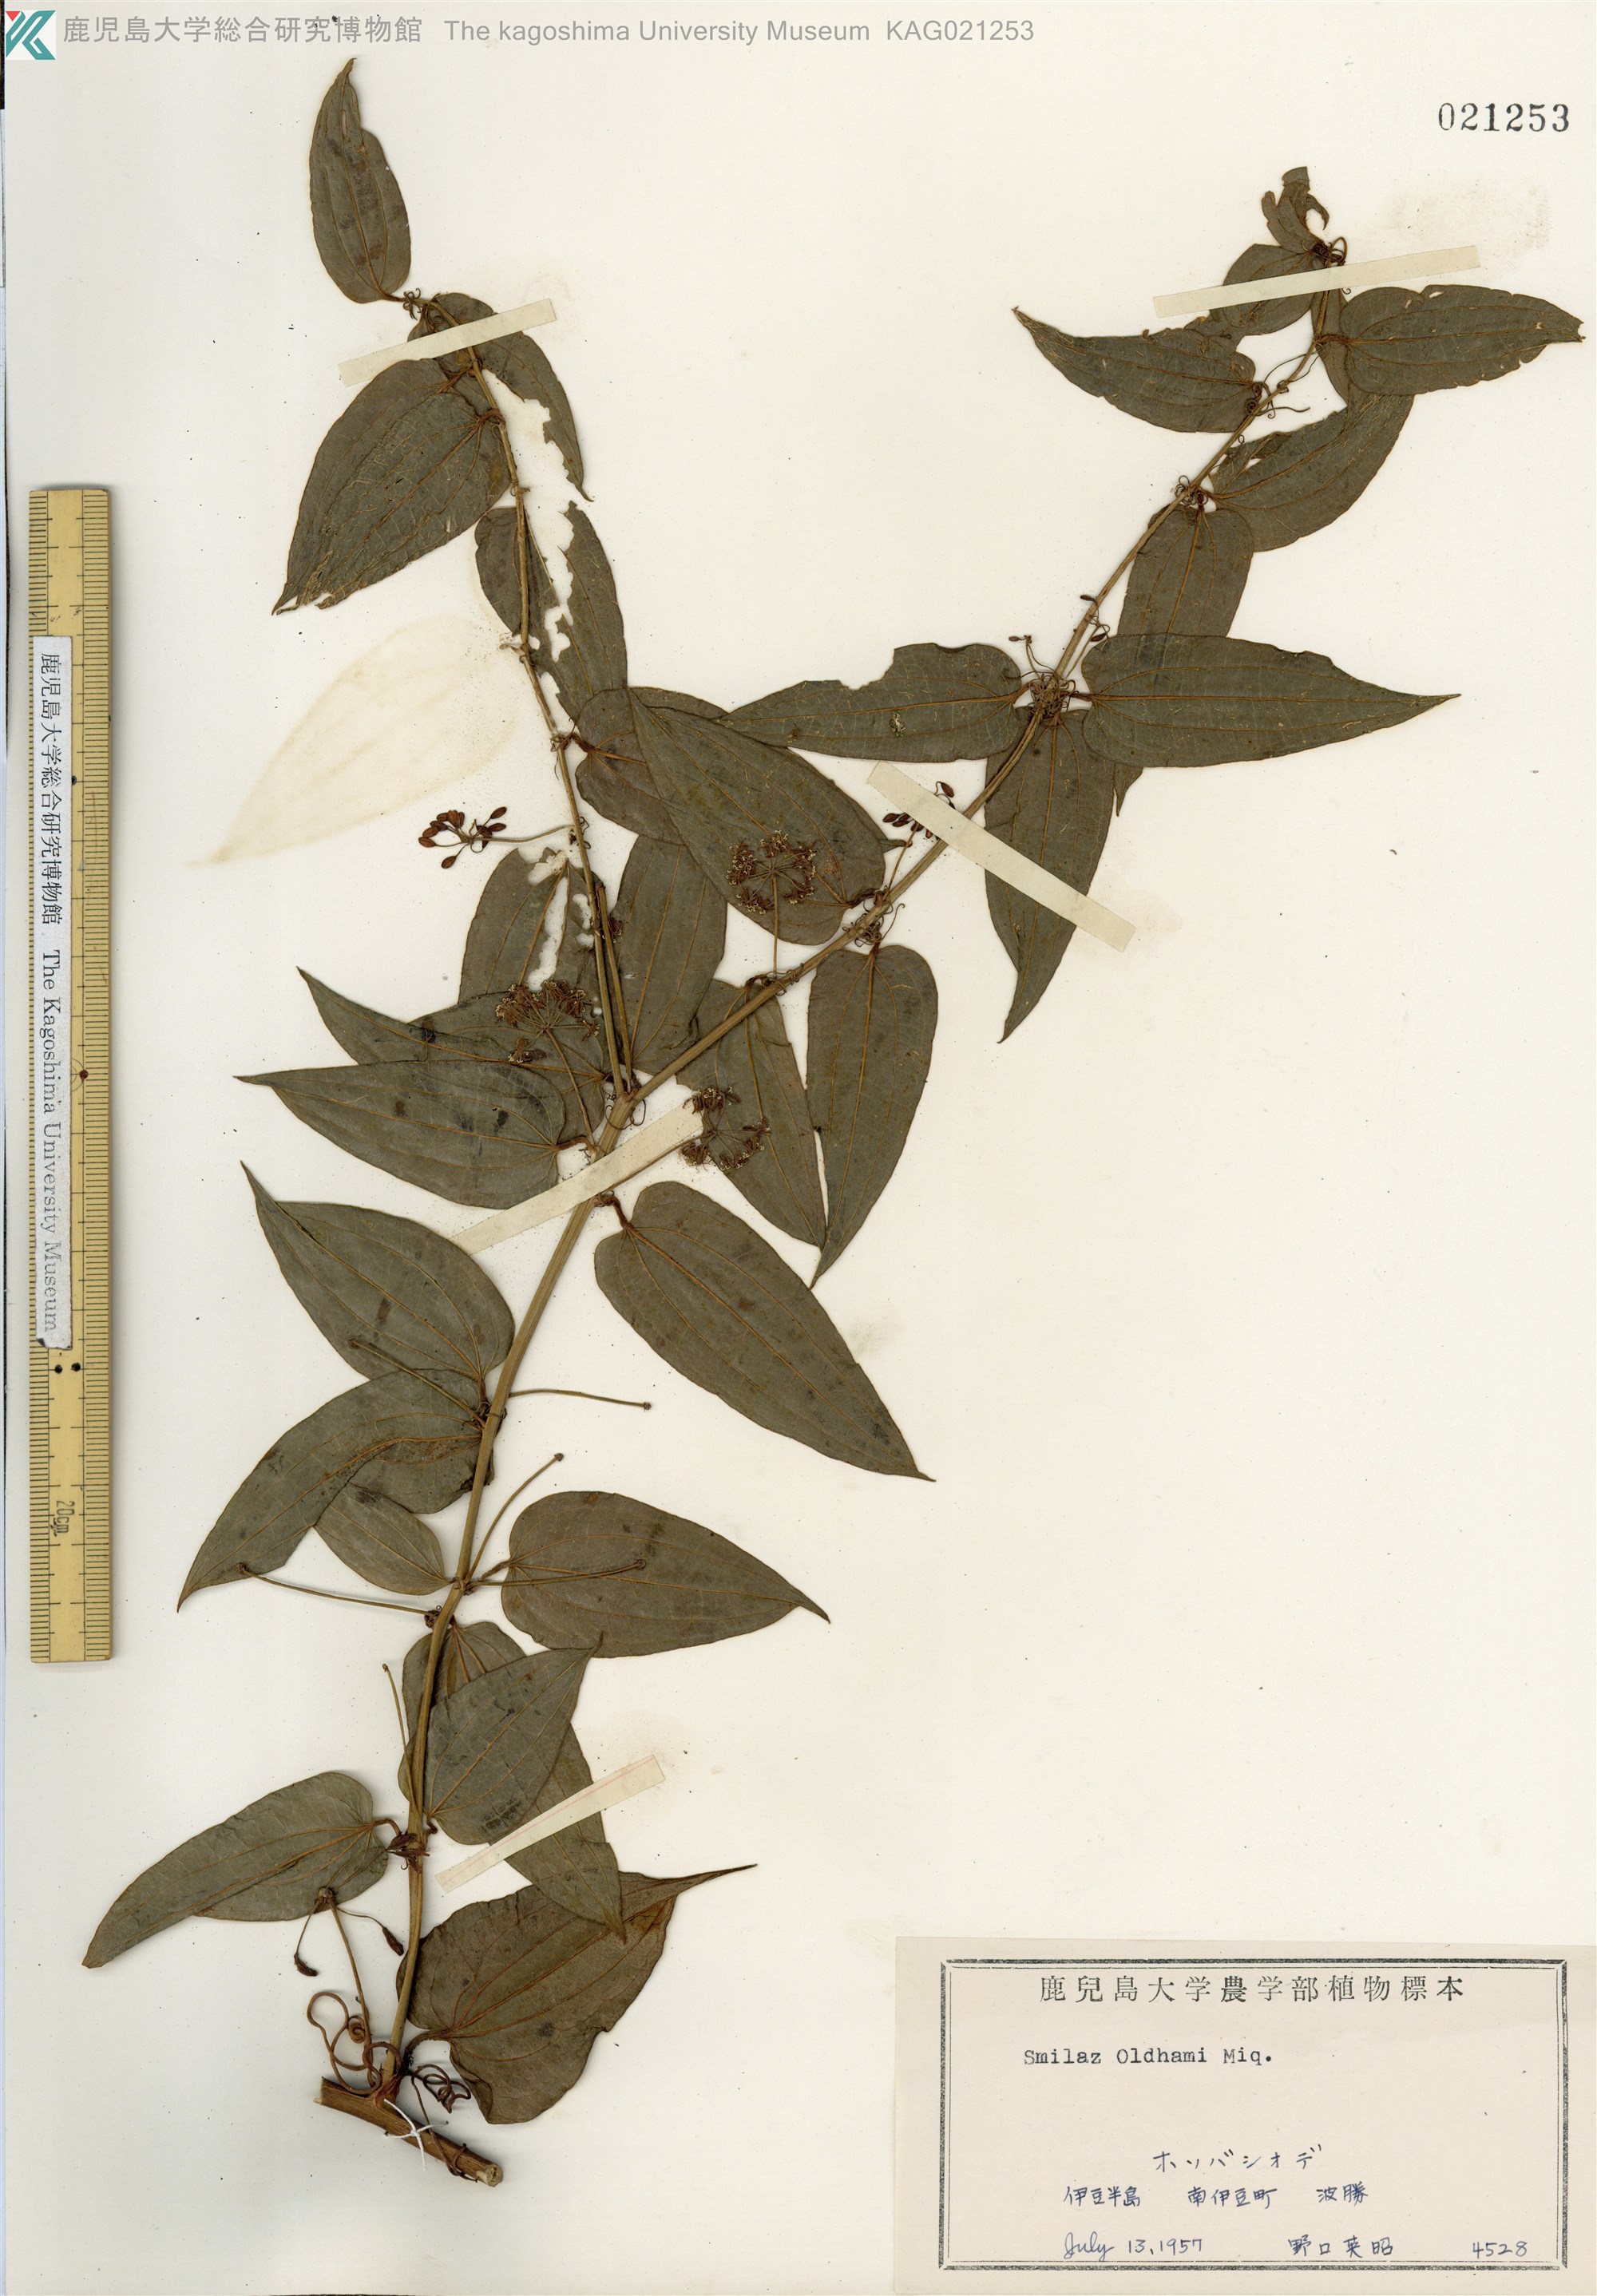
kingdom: Plantae
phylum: Tracheophyta
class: Liliopsida
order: Liliales
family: Smilacaceae
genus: Smilax
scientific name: Smilax riparia
